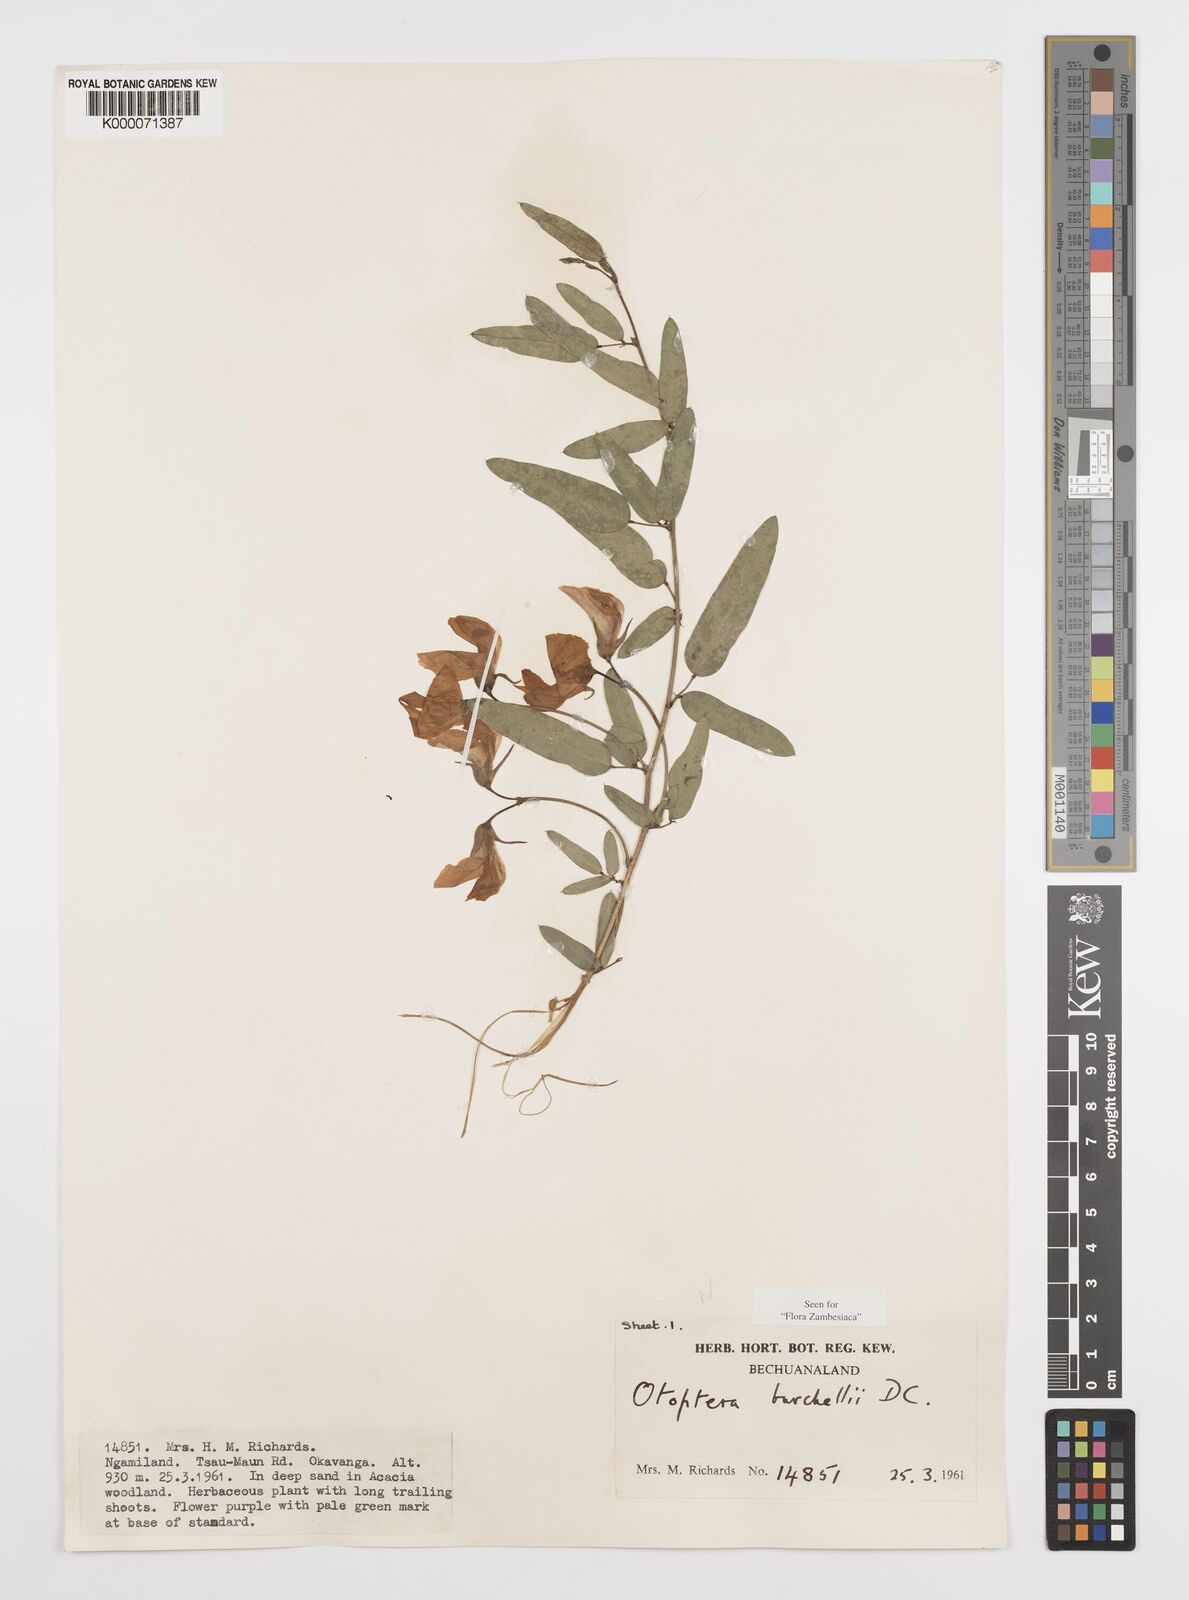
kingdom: Plantae
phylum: Tracheophyta
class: Magnoliopsida
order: Fabales
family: Fabaceae
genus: Otoptera
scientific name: Otoptera burchellii
